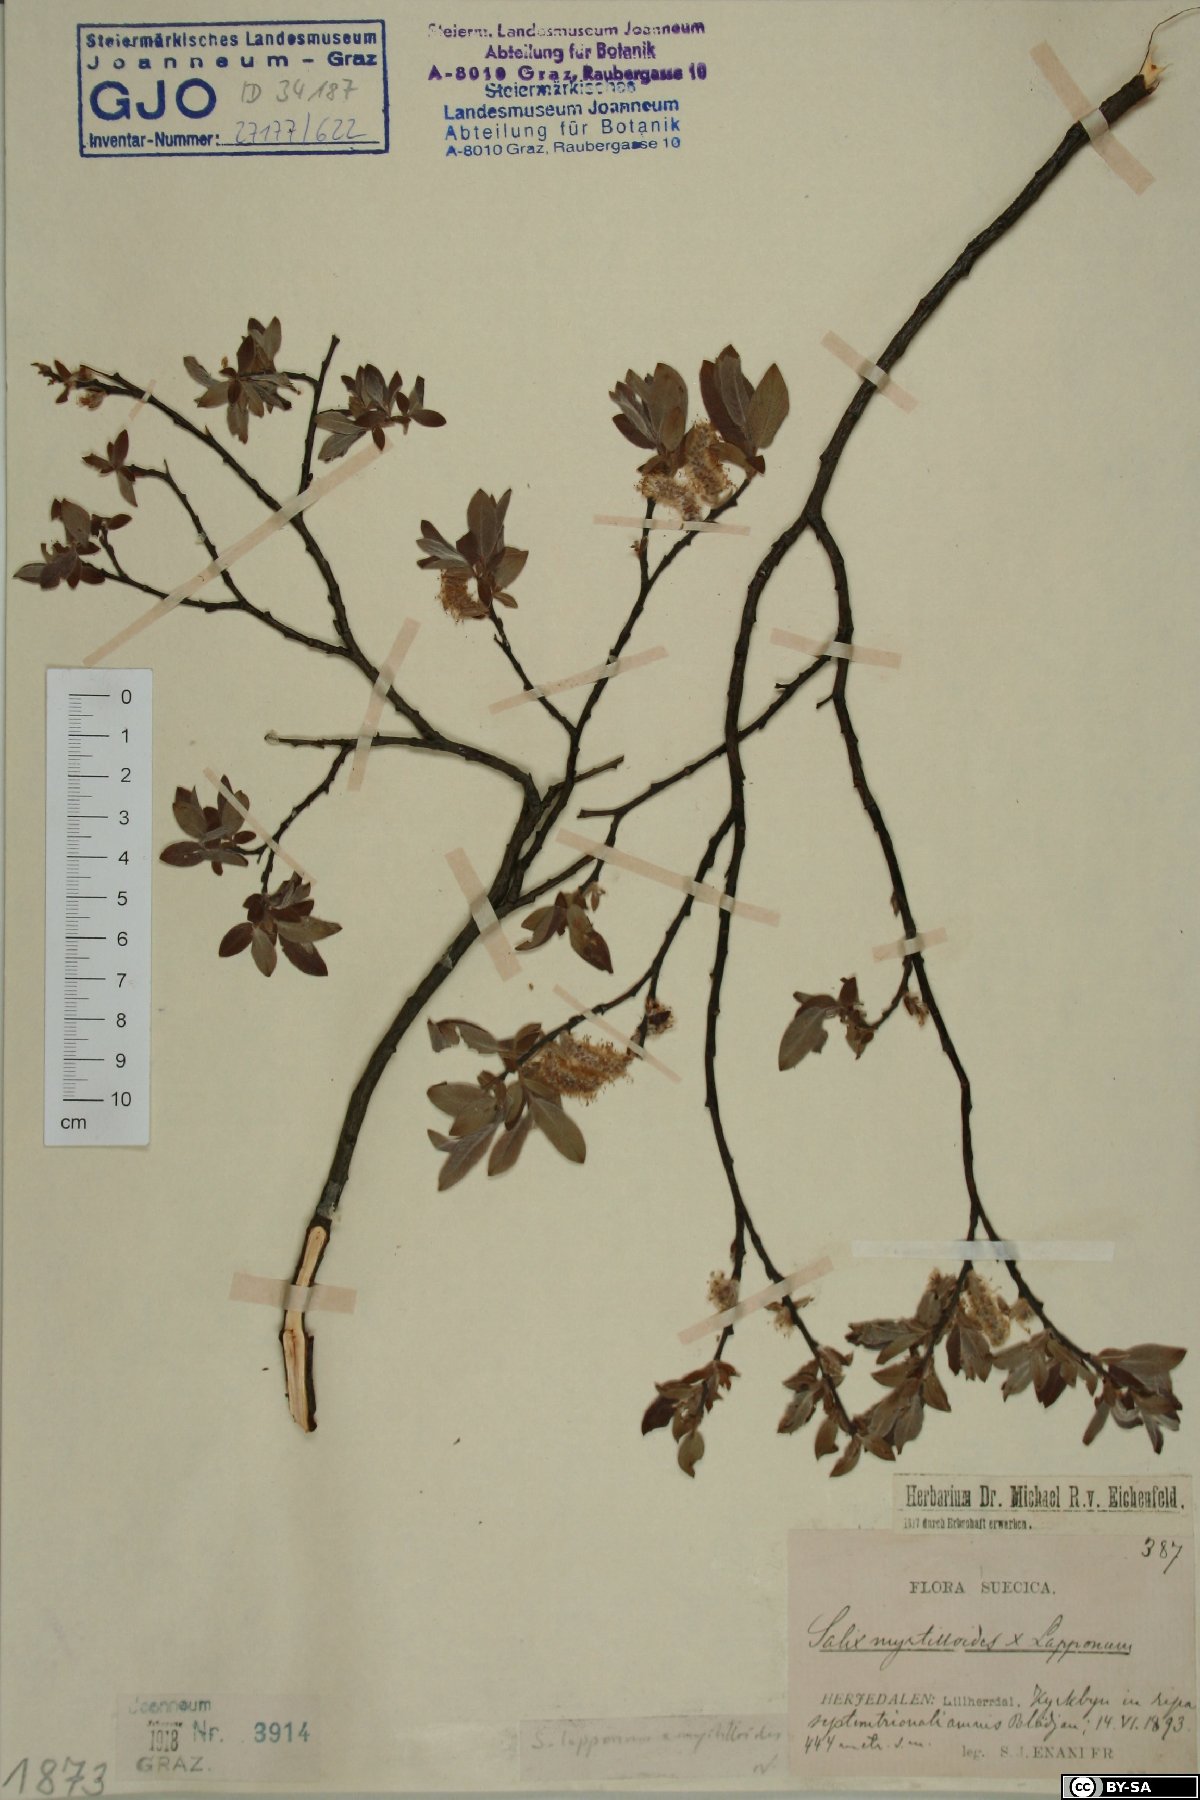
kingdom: Plantae
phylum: Tracheophyta
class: Magnoliopsida
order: Malpighiales
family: Salicaceae
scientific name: Salicaceae
